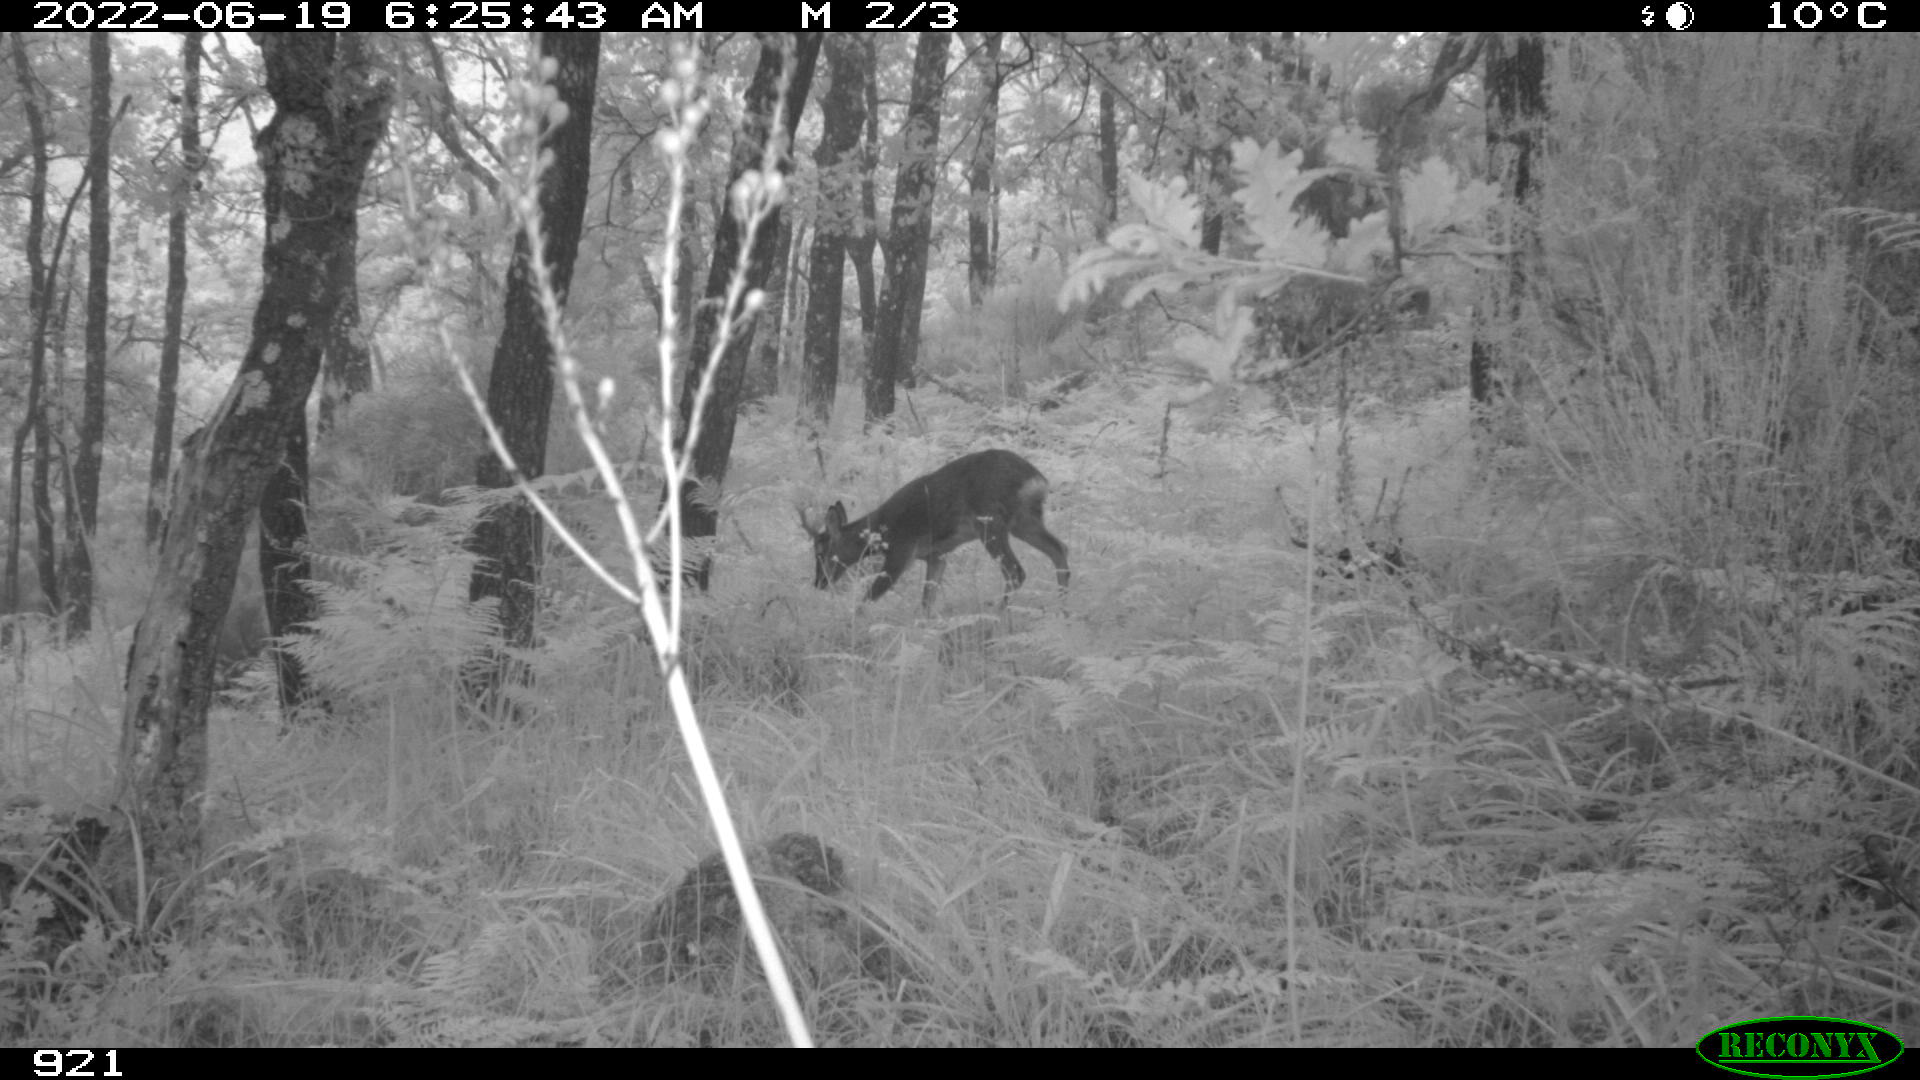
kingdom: Animalia
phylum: Chordata
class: Mammalia
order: Artiodactyla
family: Cervidae
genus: Capreolus
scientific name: Capreolus capreolus
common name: Western roe deer
